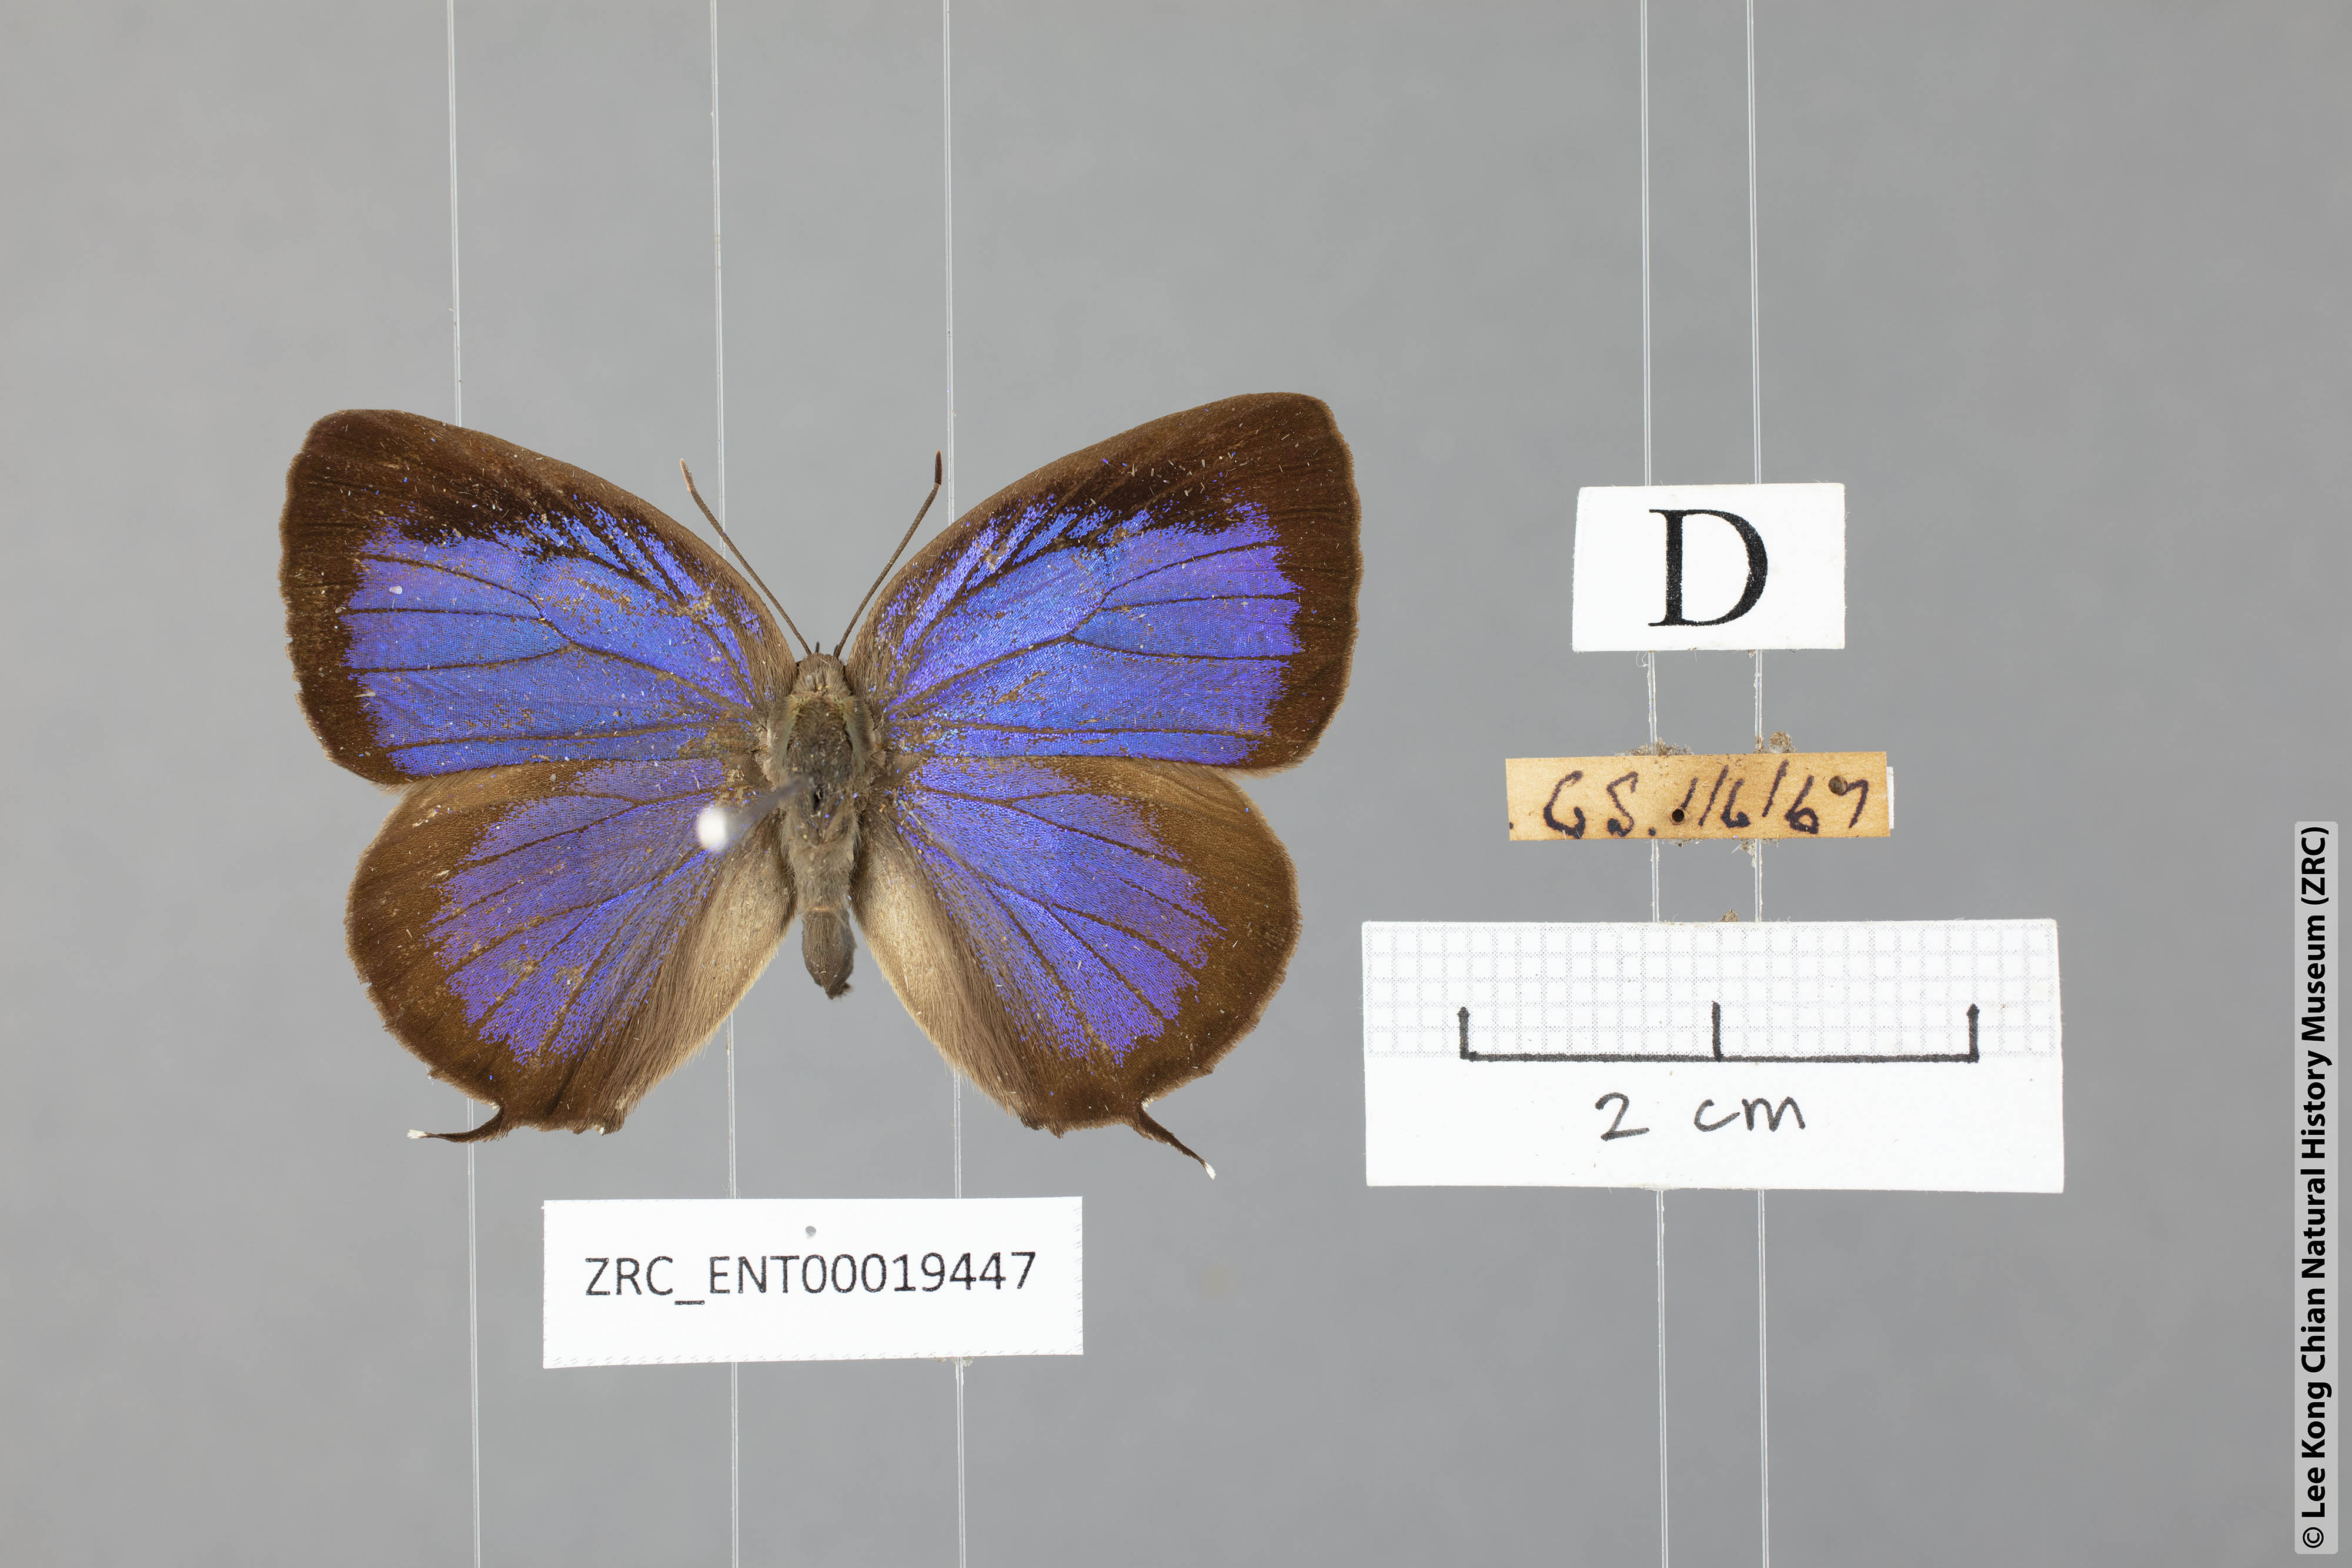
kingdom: Animalia
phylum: Arthropoda
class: Insecta
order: Lepidoptera
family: Lycaenidae
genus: Arhopala
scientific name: Arhopala eumolphus
